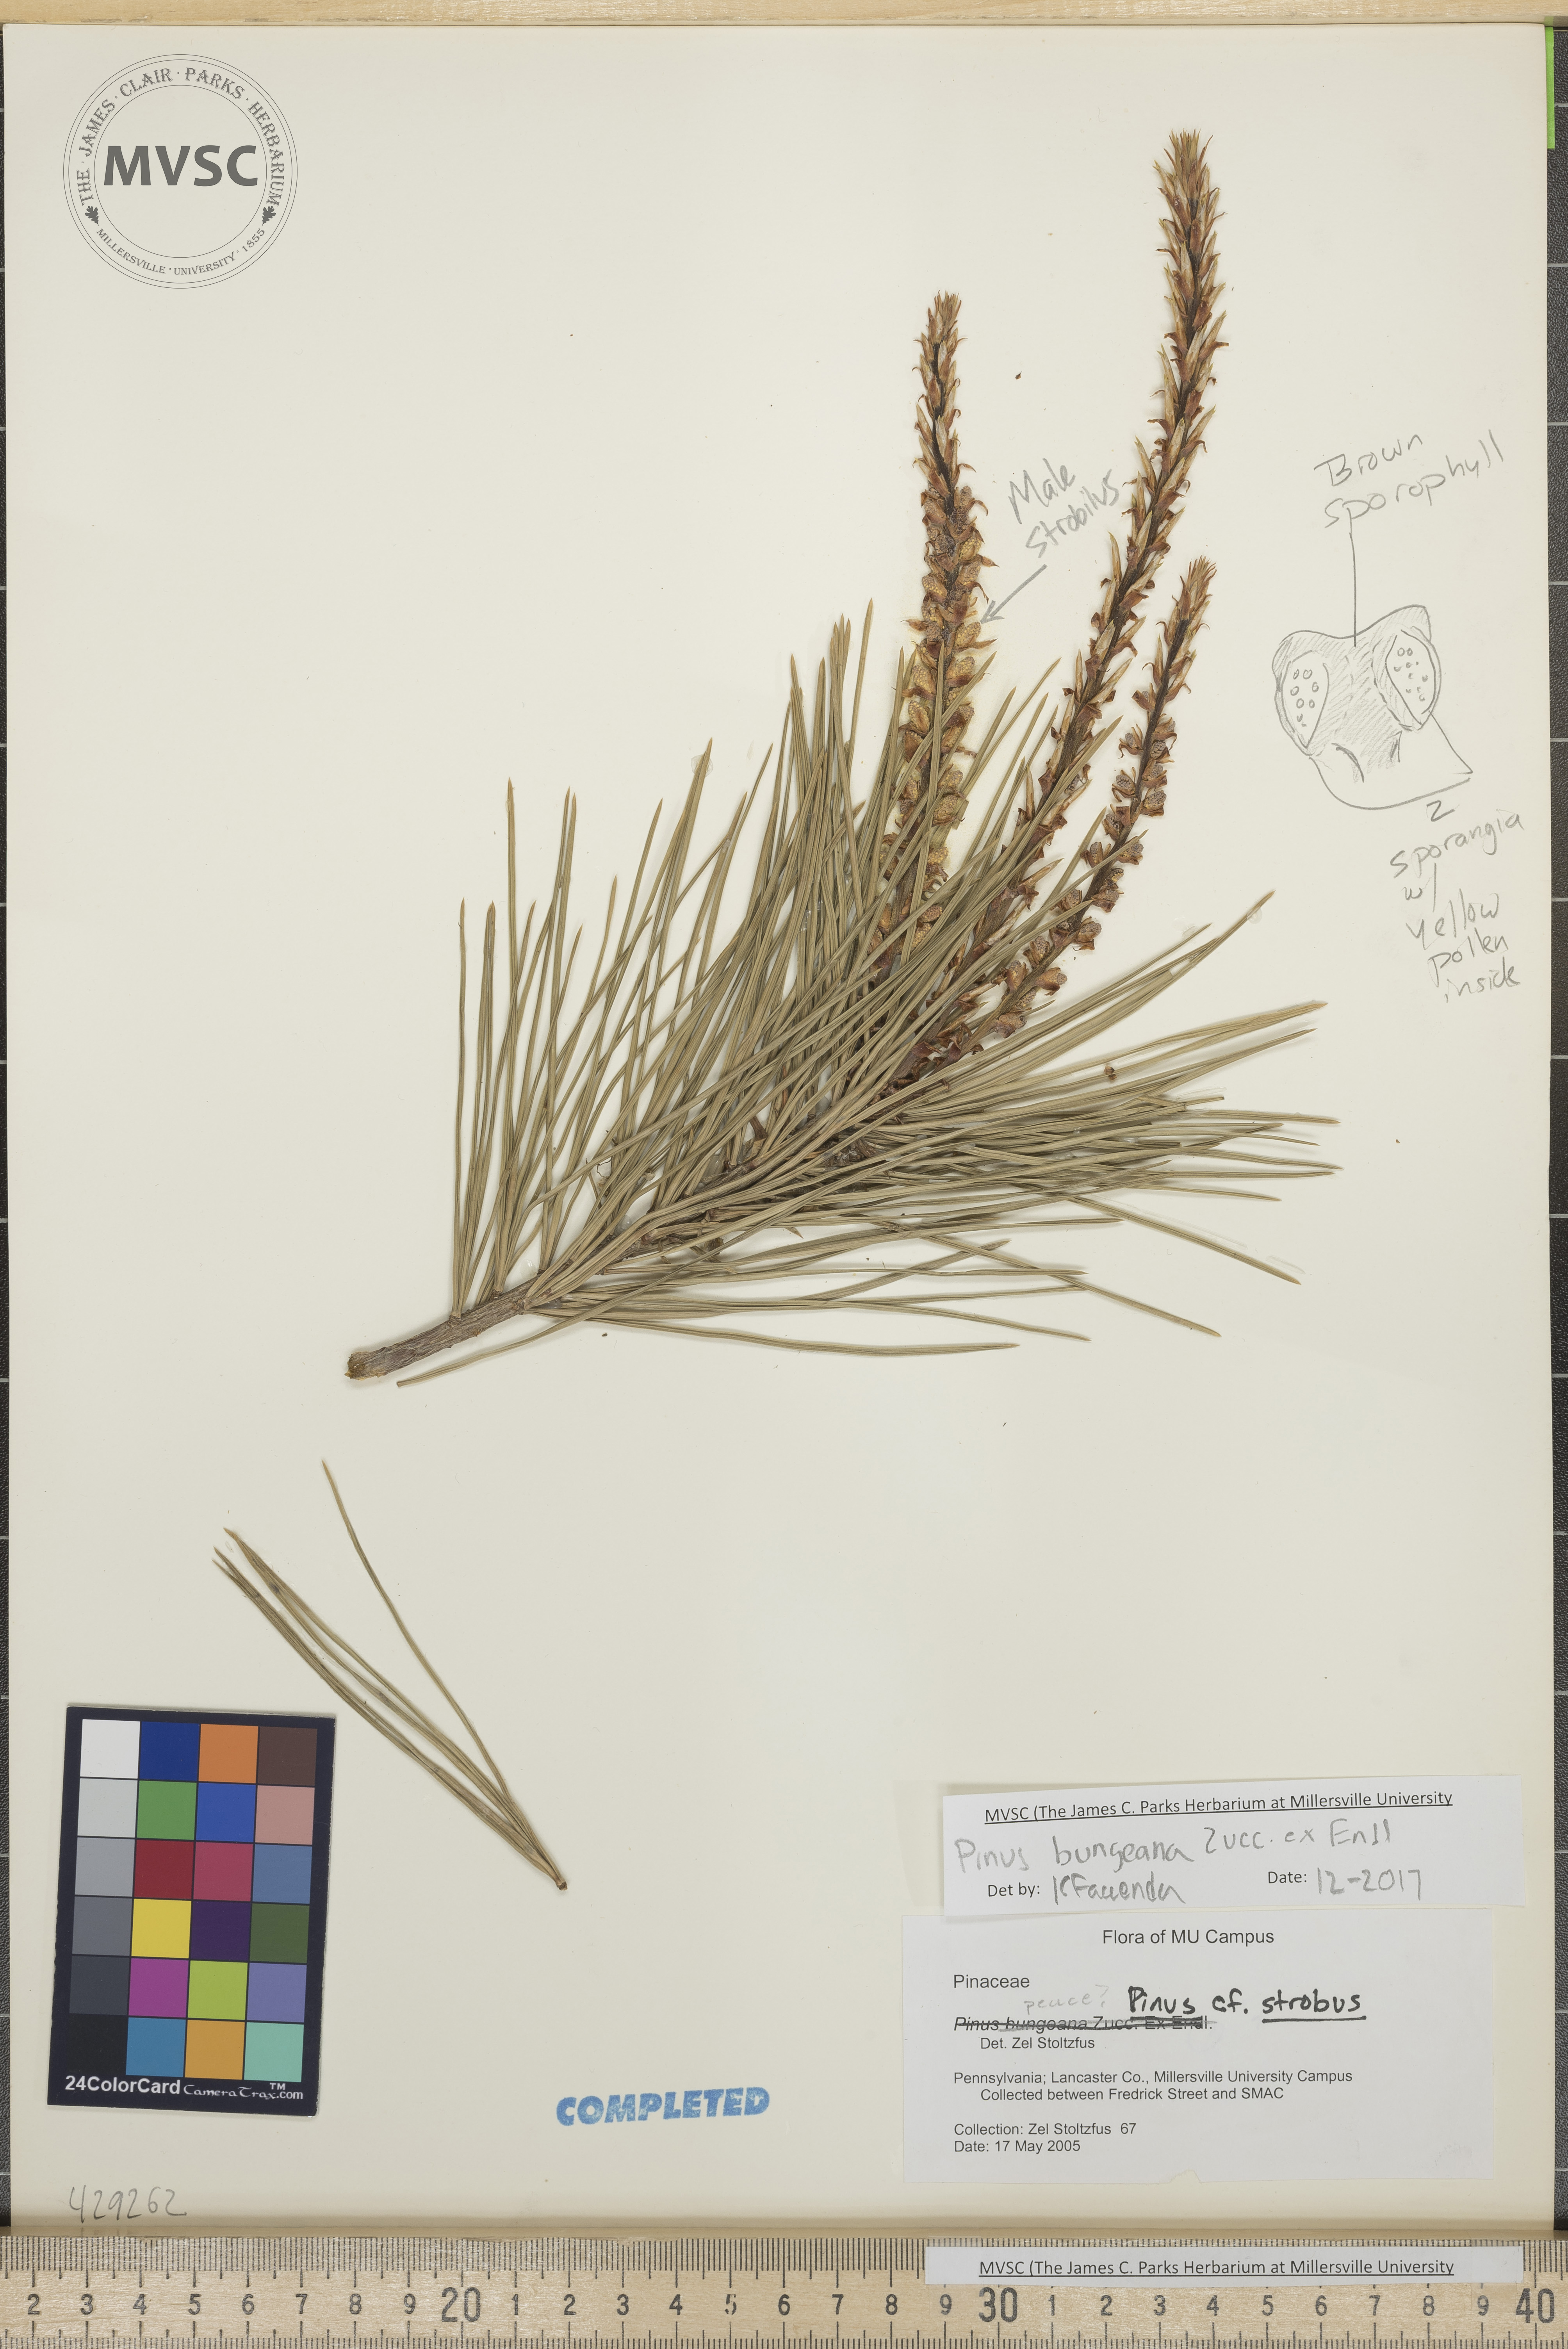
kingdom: Plantae
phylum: Tracheophyta
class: Pinopsida
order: Pinales
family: Pinaceae
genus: Pinus
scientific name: Pinus bungeana
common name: Lace-bark pine
